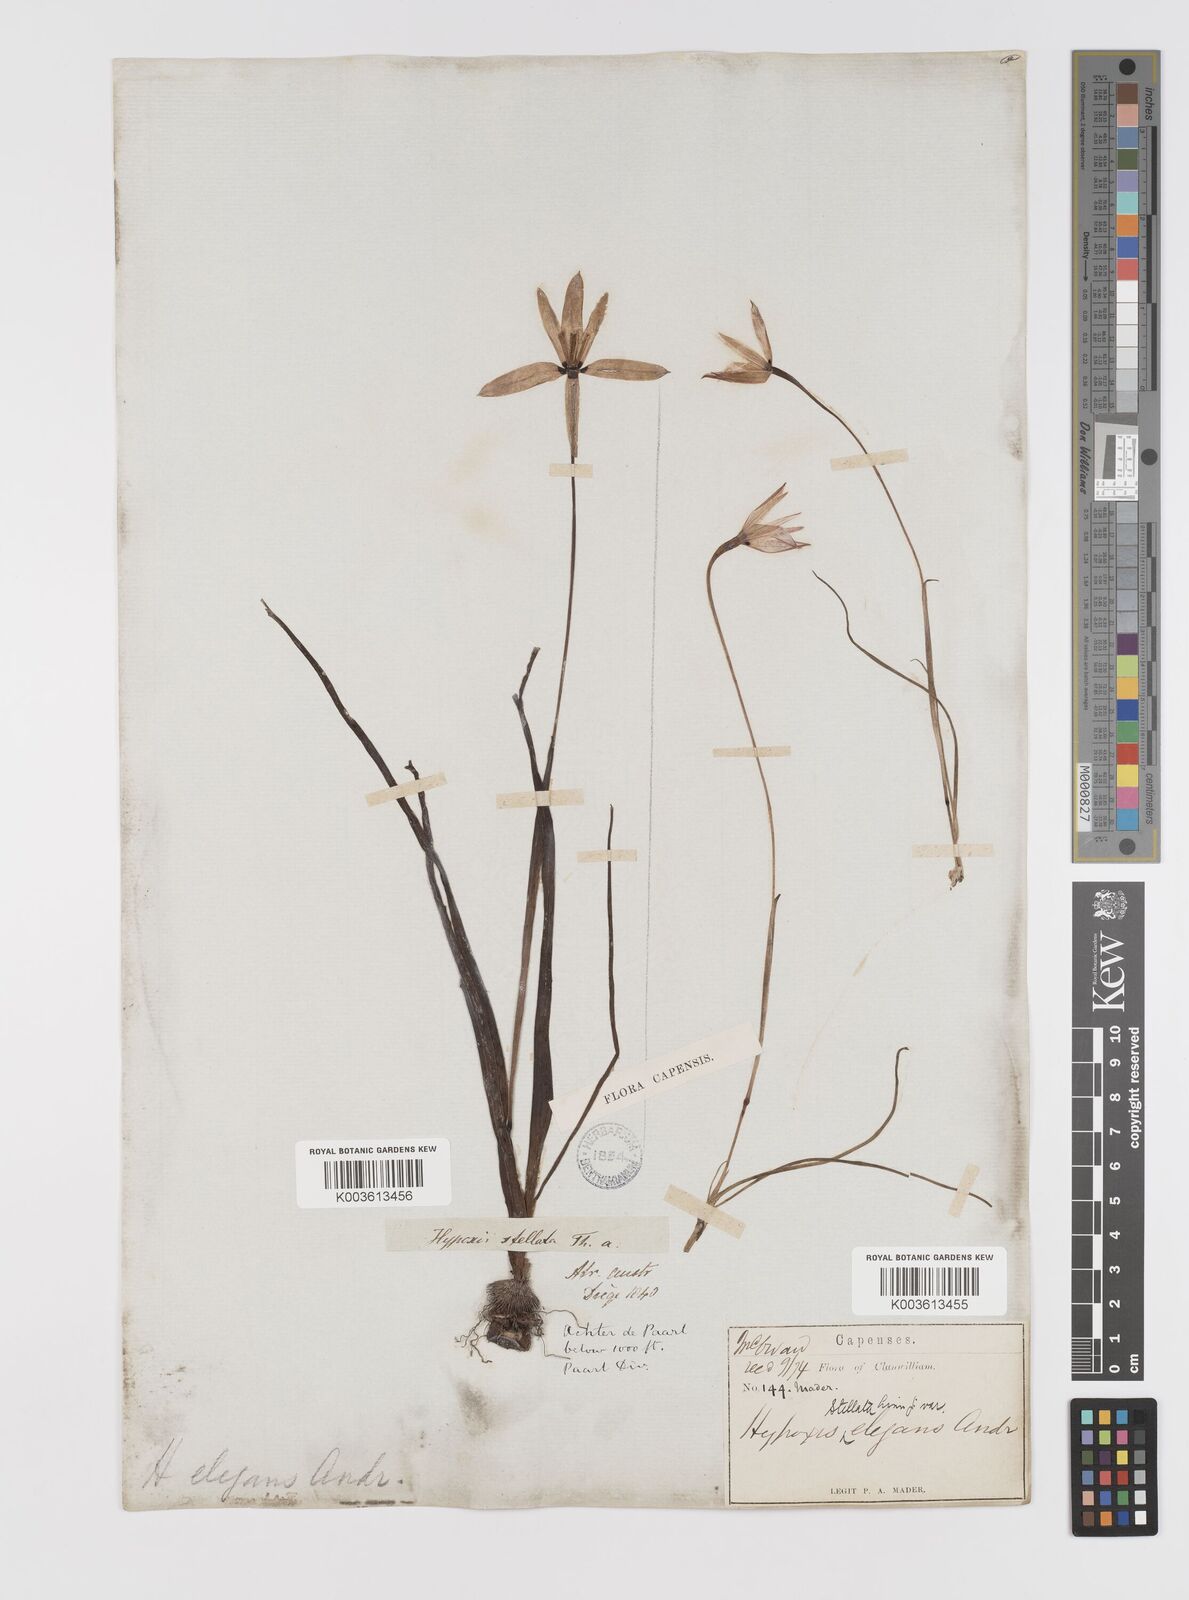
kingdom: Plantae
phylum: Tracheophyta
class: Liliopsida
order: Asparagales
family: Hypoxidaceae
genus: Pauridia
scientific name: Pauridia capensis
